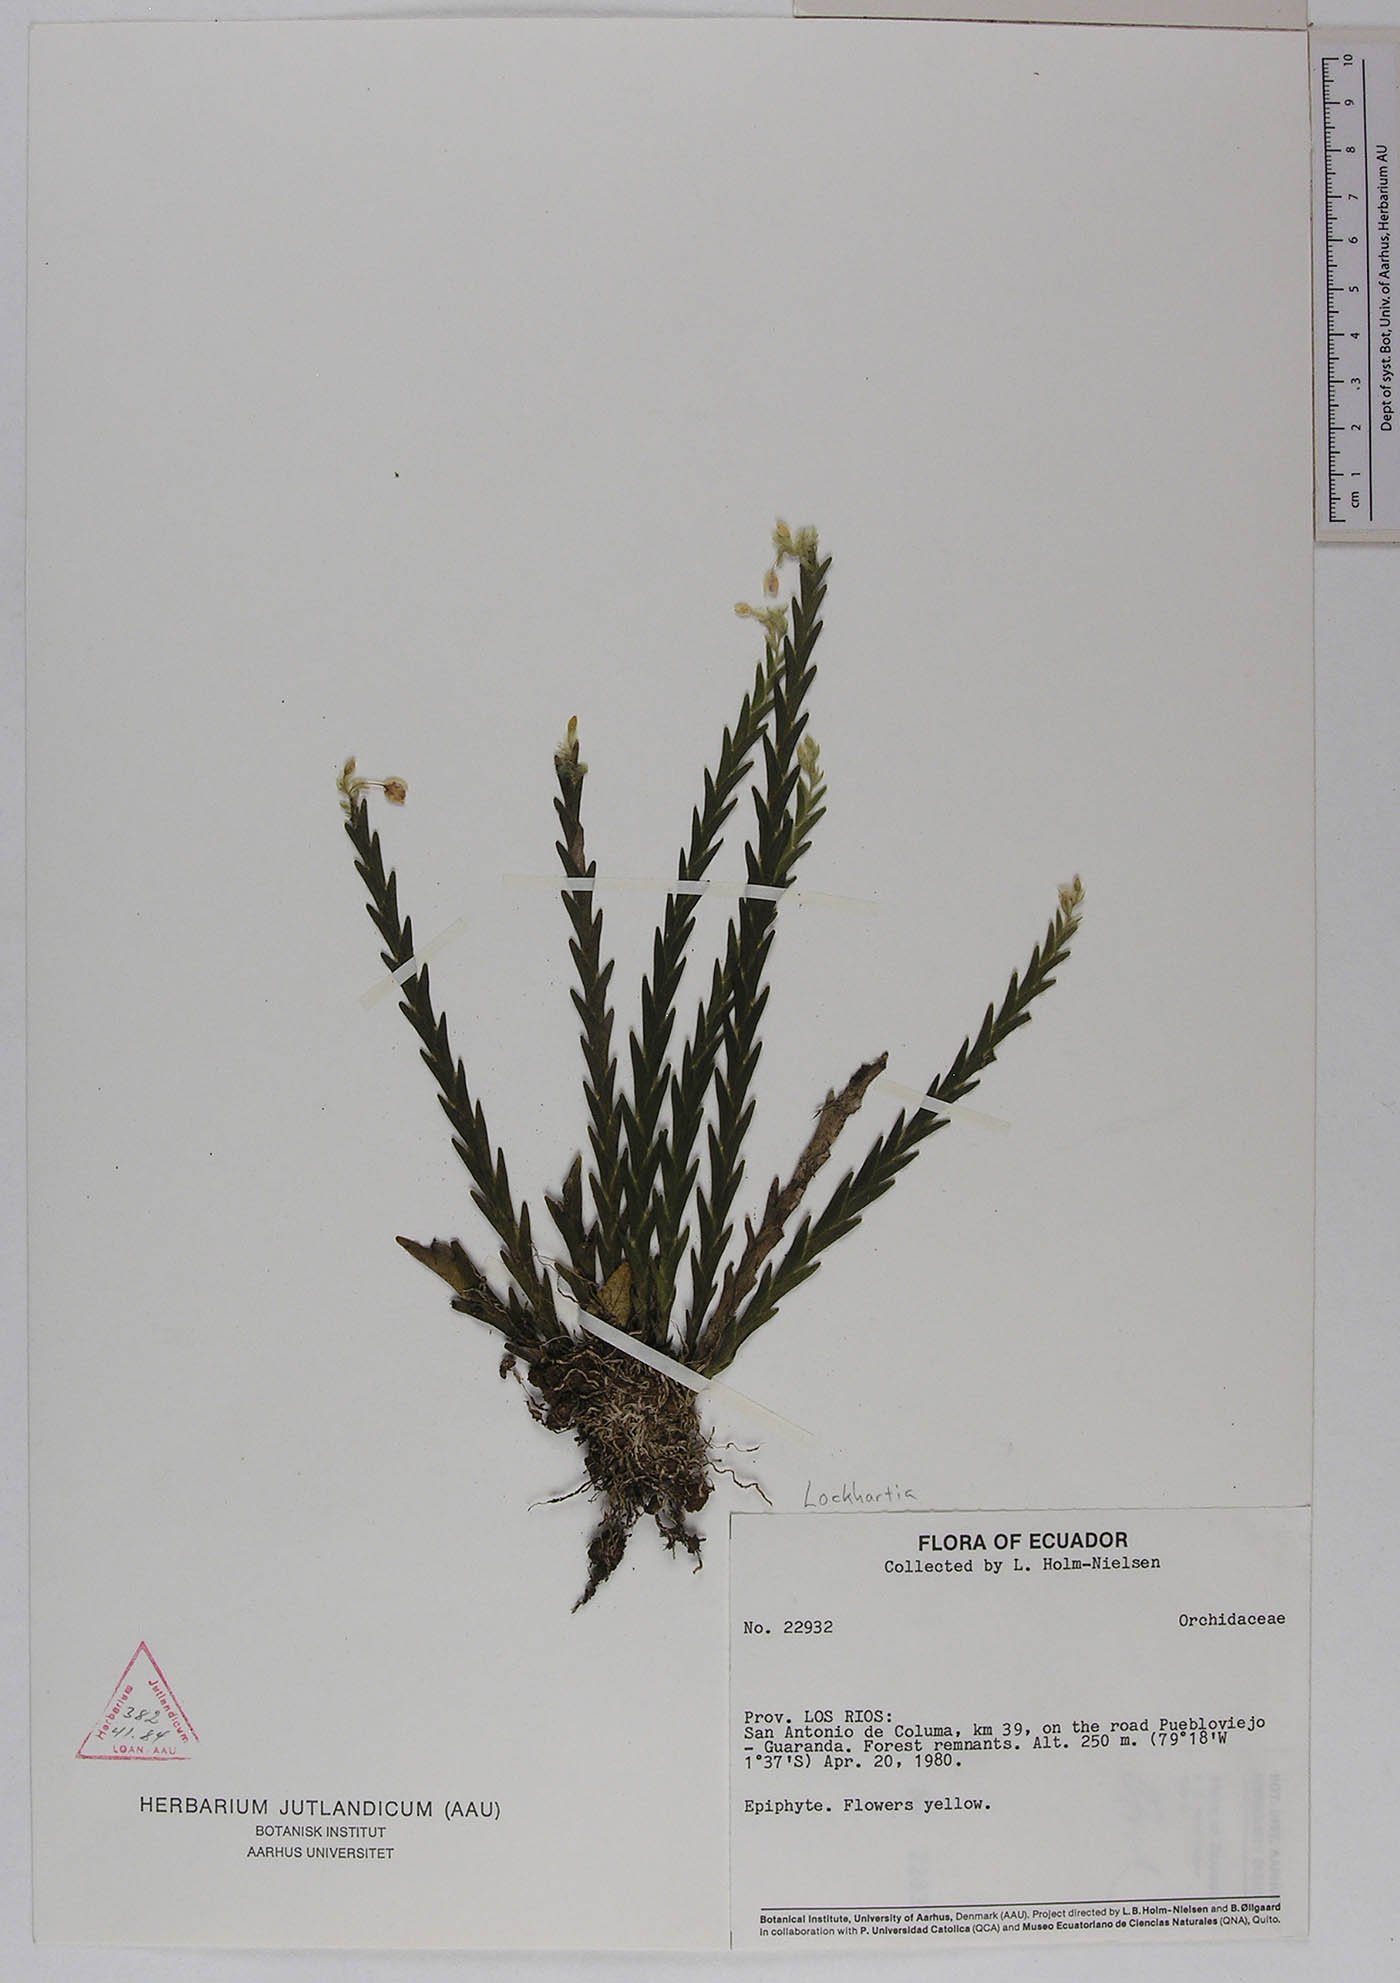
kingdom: Plantae
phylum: Tracheophyta
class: Liliopsida
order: Asparagales
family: Orchidaceae
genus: Lockhartia
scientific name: Lockhartia
